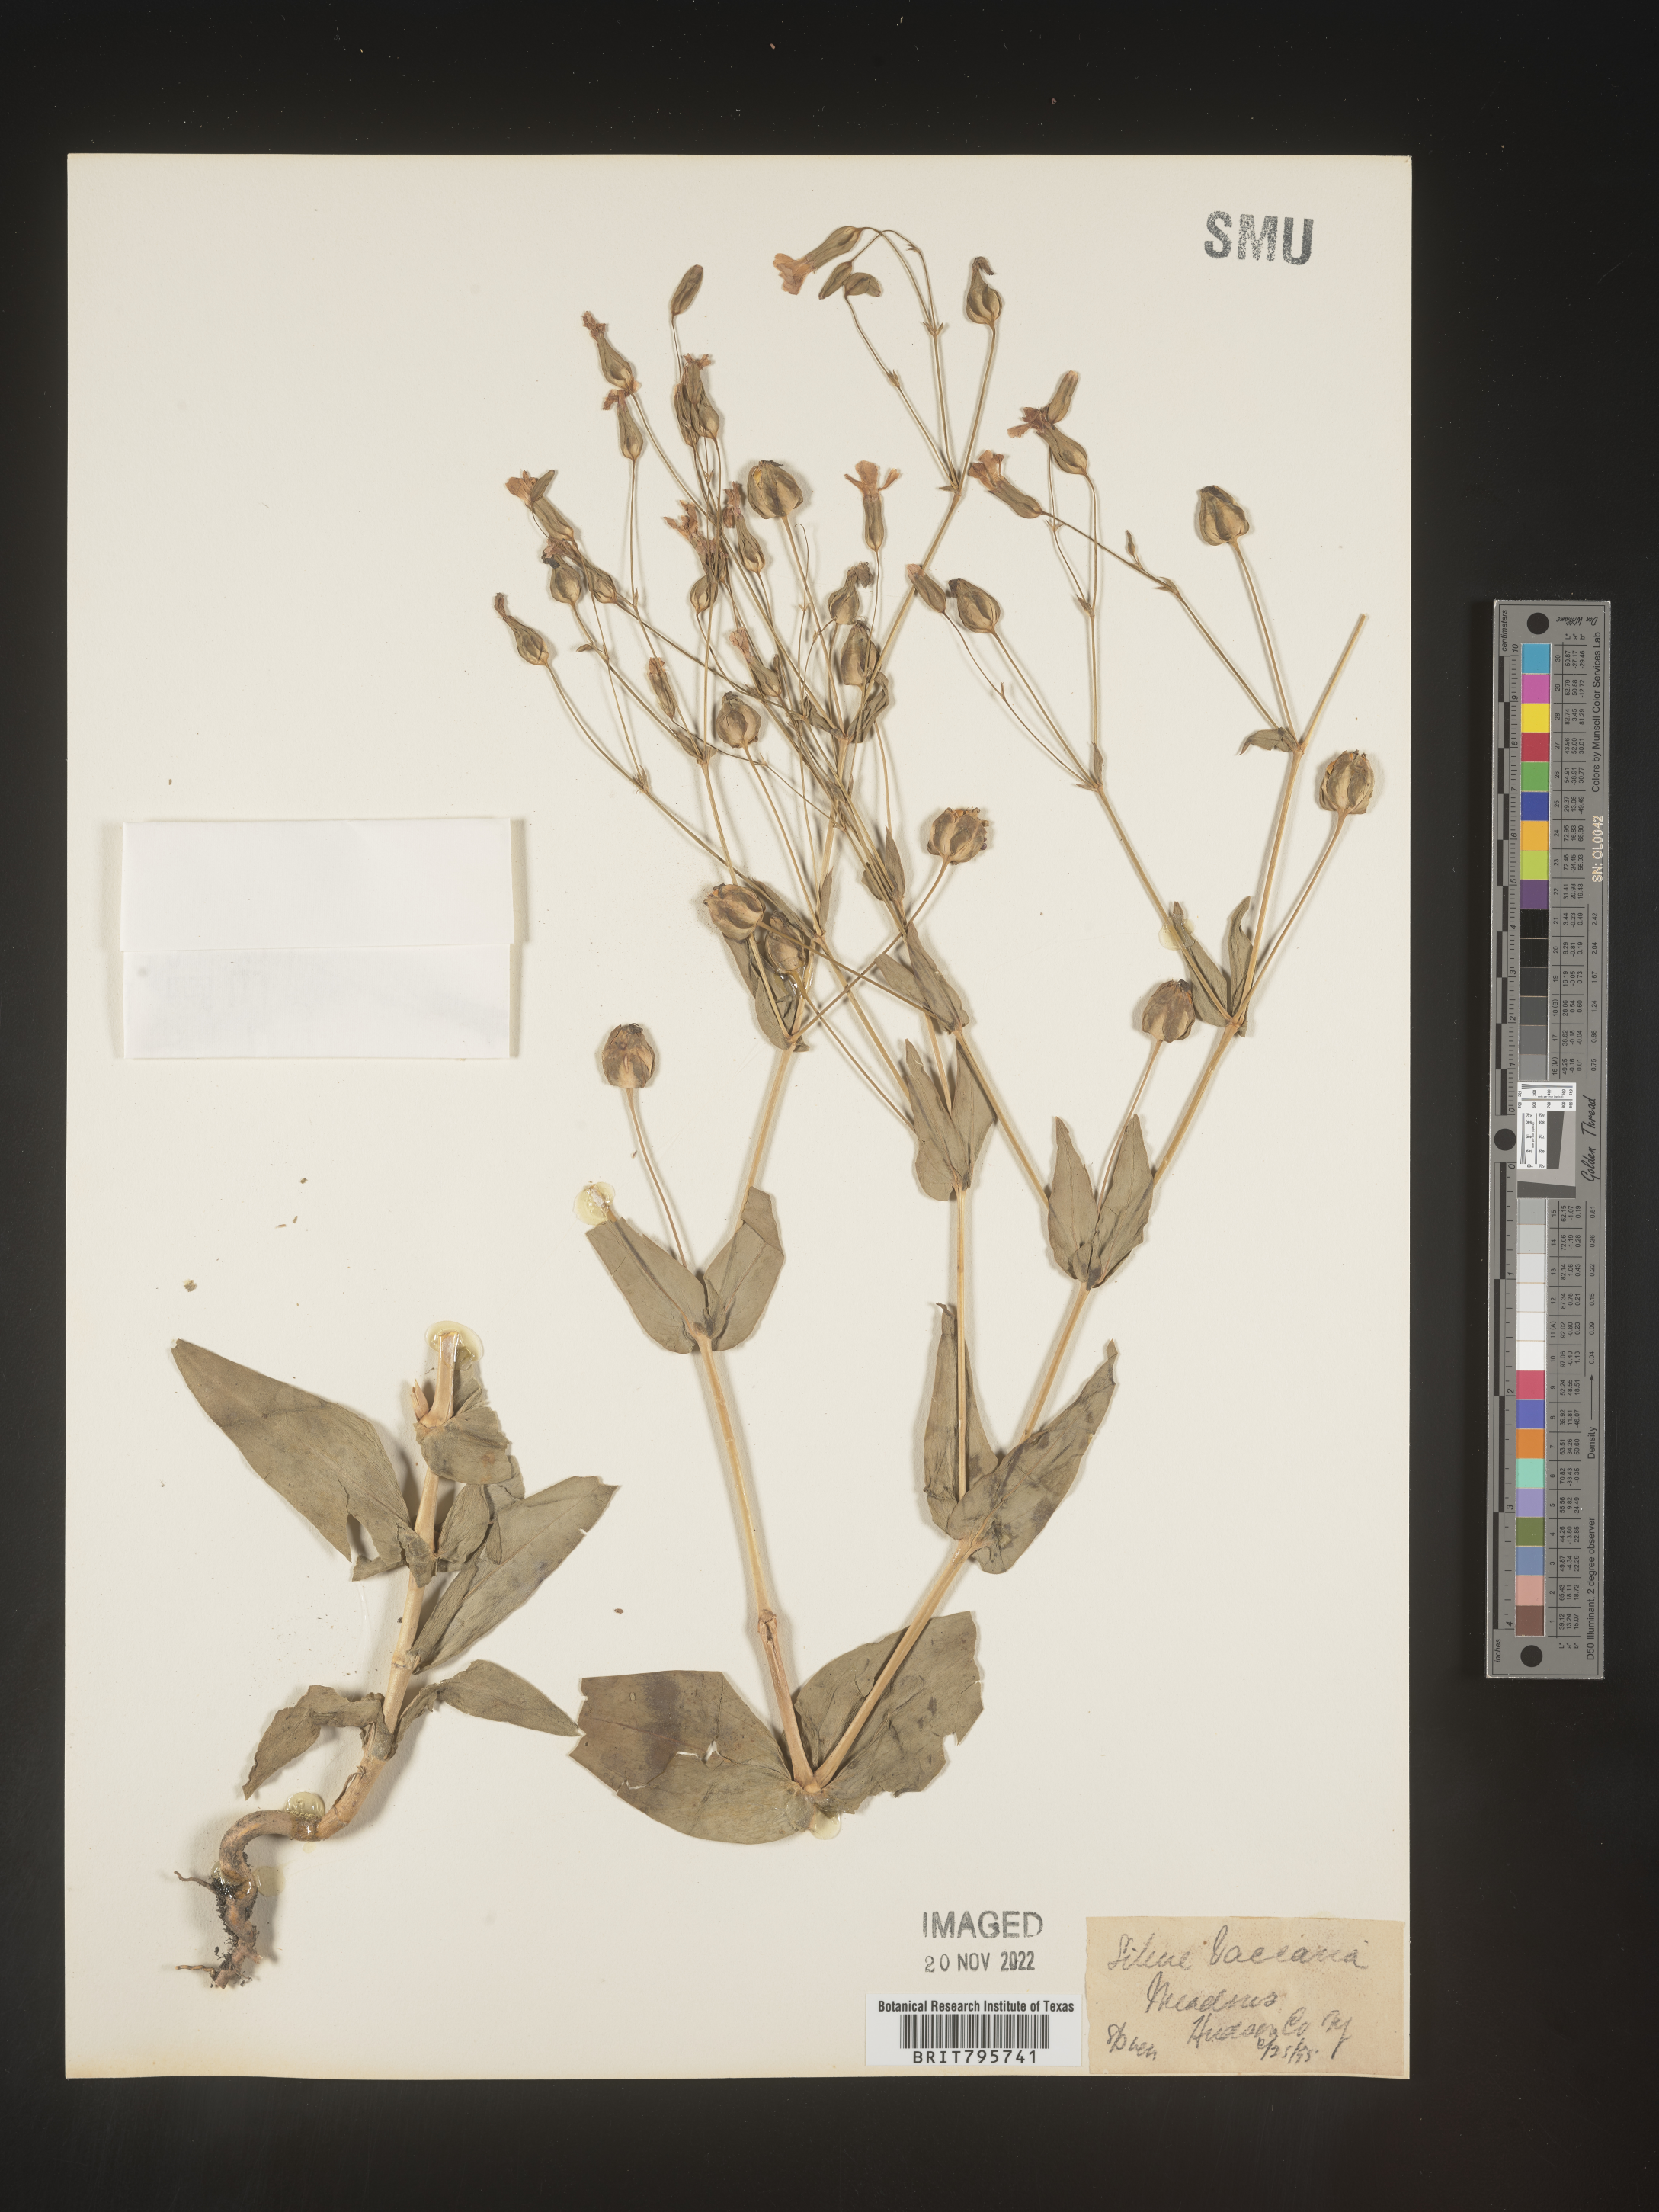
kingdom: Plantae
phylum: Tracheophyta
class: Magnoliopsida
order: Caryophyllales
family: Caryophyllaceae
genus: Vaccaria
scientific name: Vaccaria
